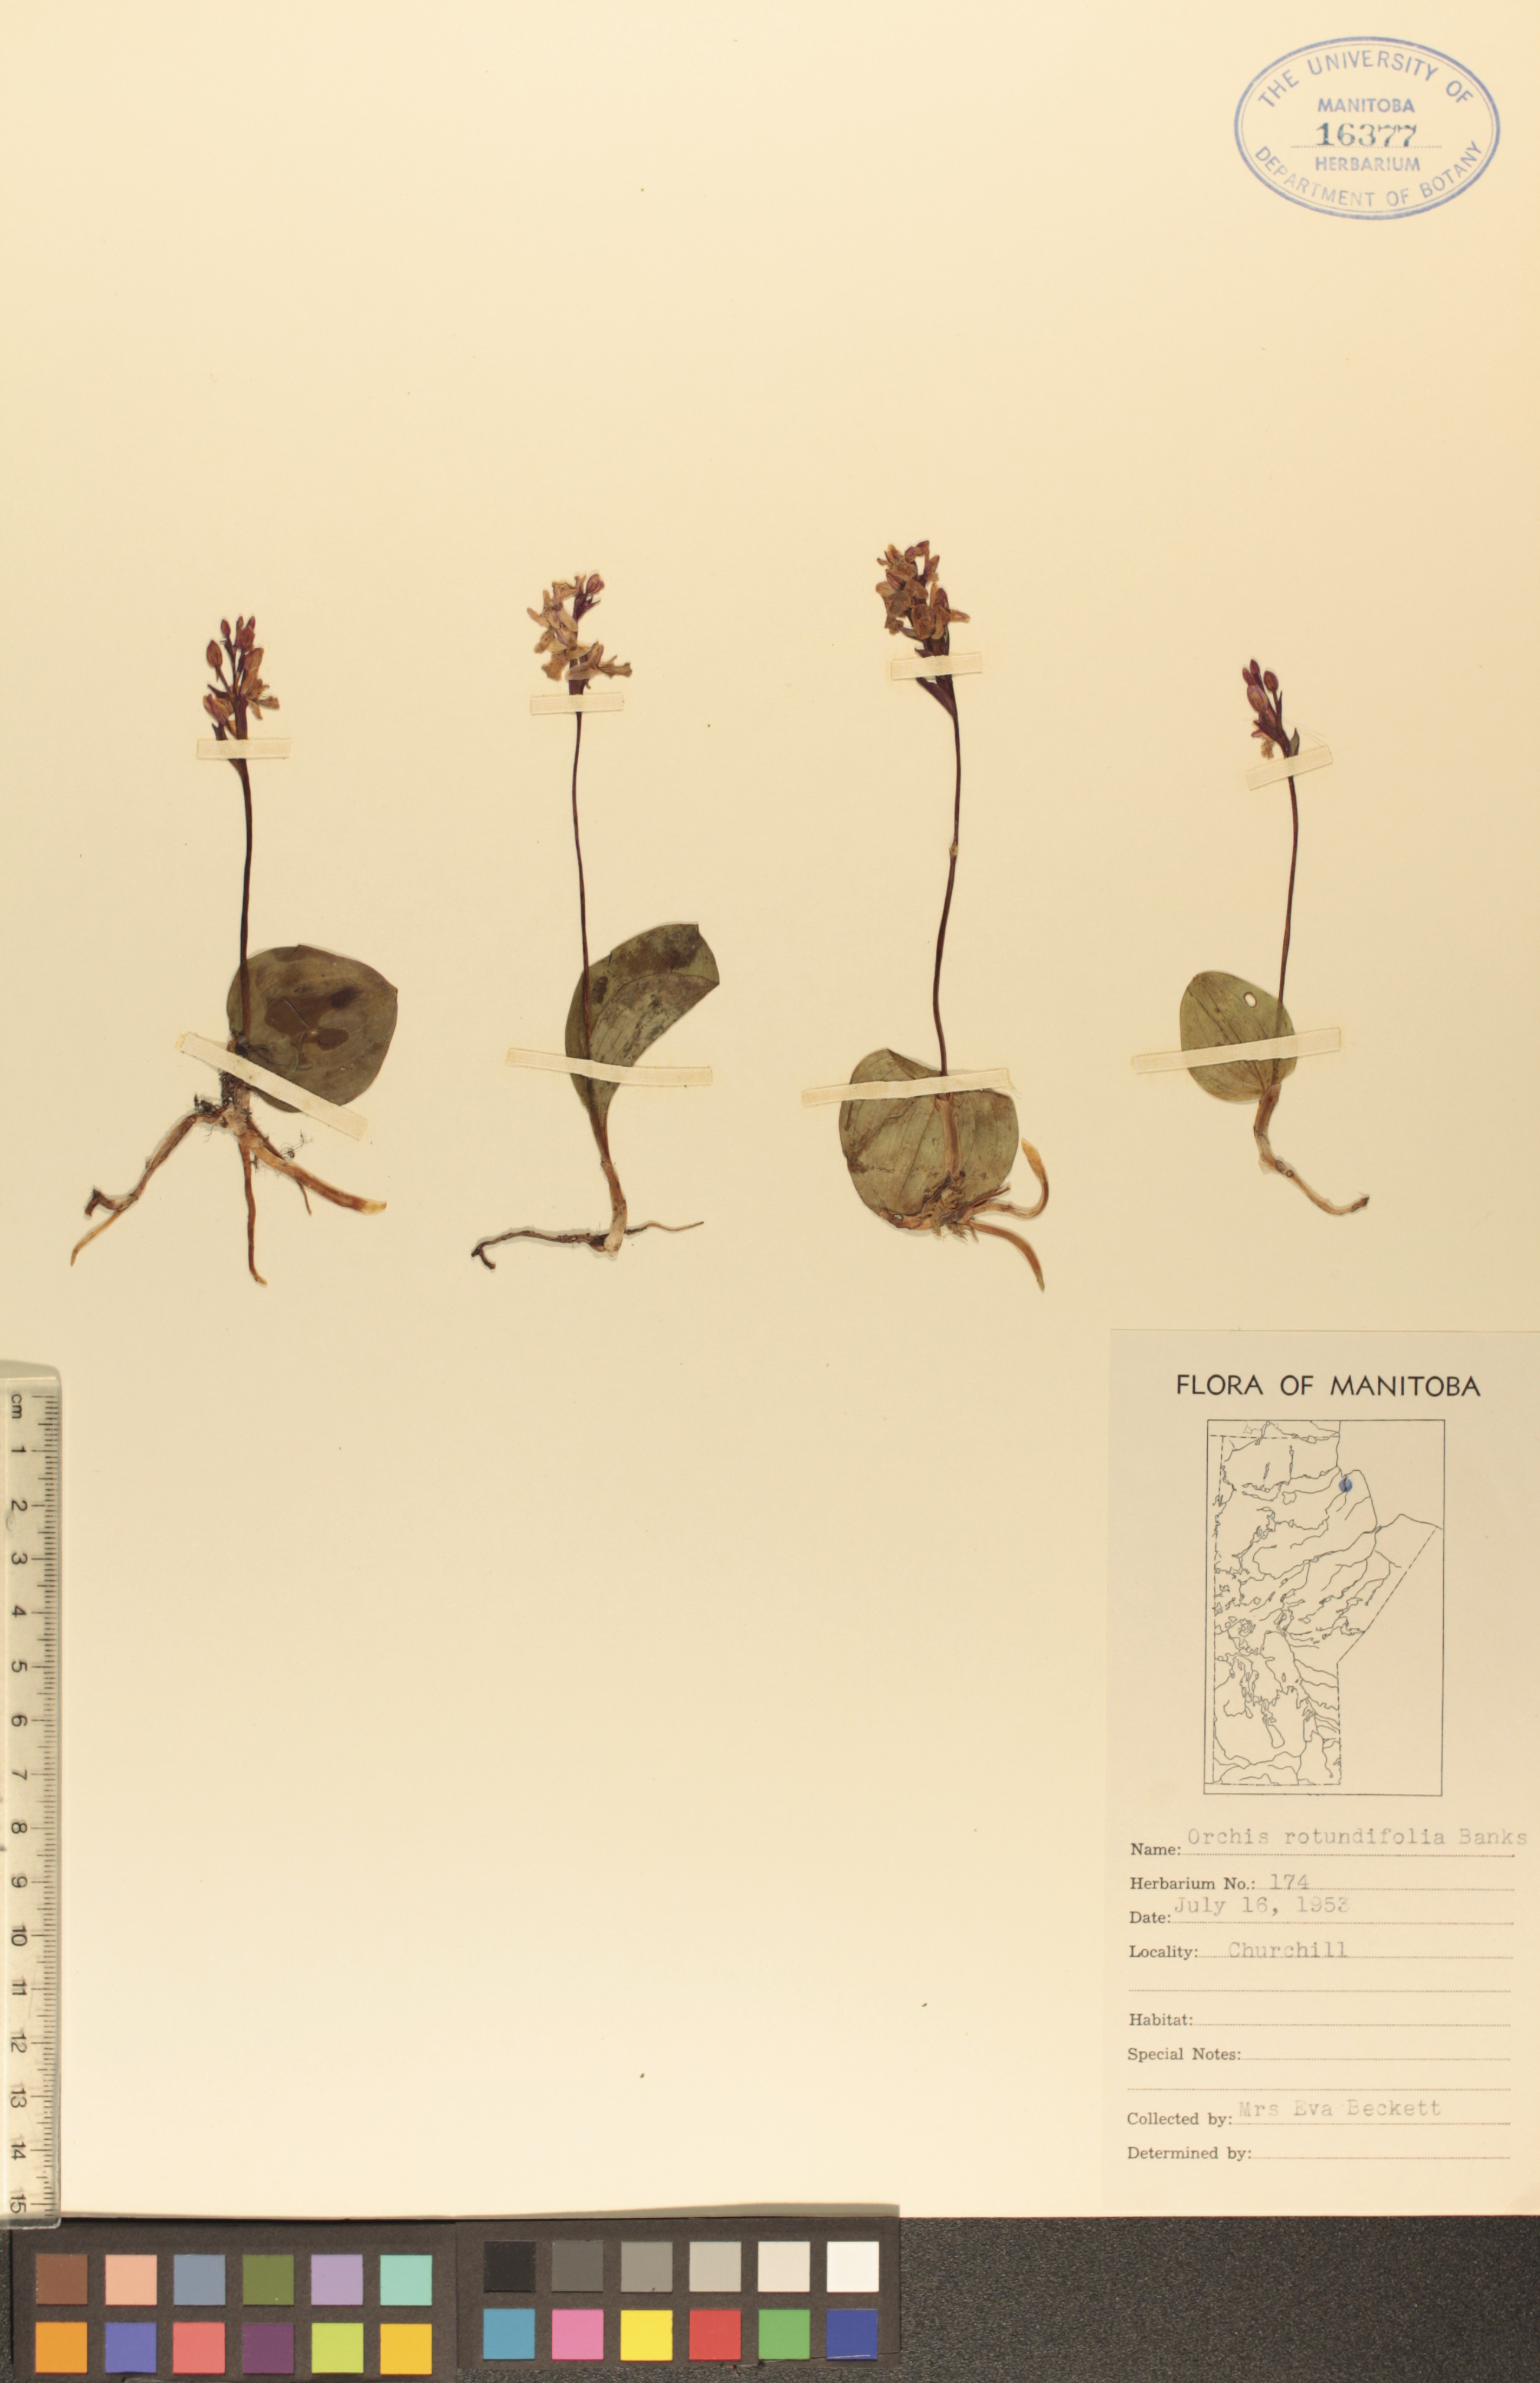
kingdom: Plantae
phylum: Tracheophyta
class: Liliopsida
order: Asparagales
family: Orchidaceae
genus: Galearis
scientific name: Galearis rotundifolia
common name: One-leaved orchis
